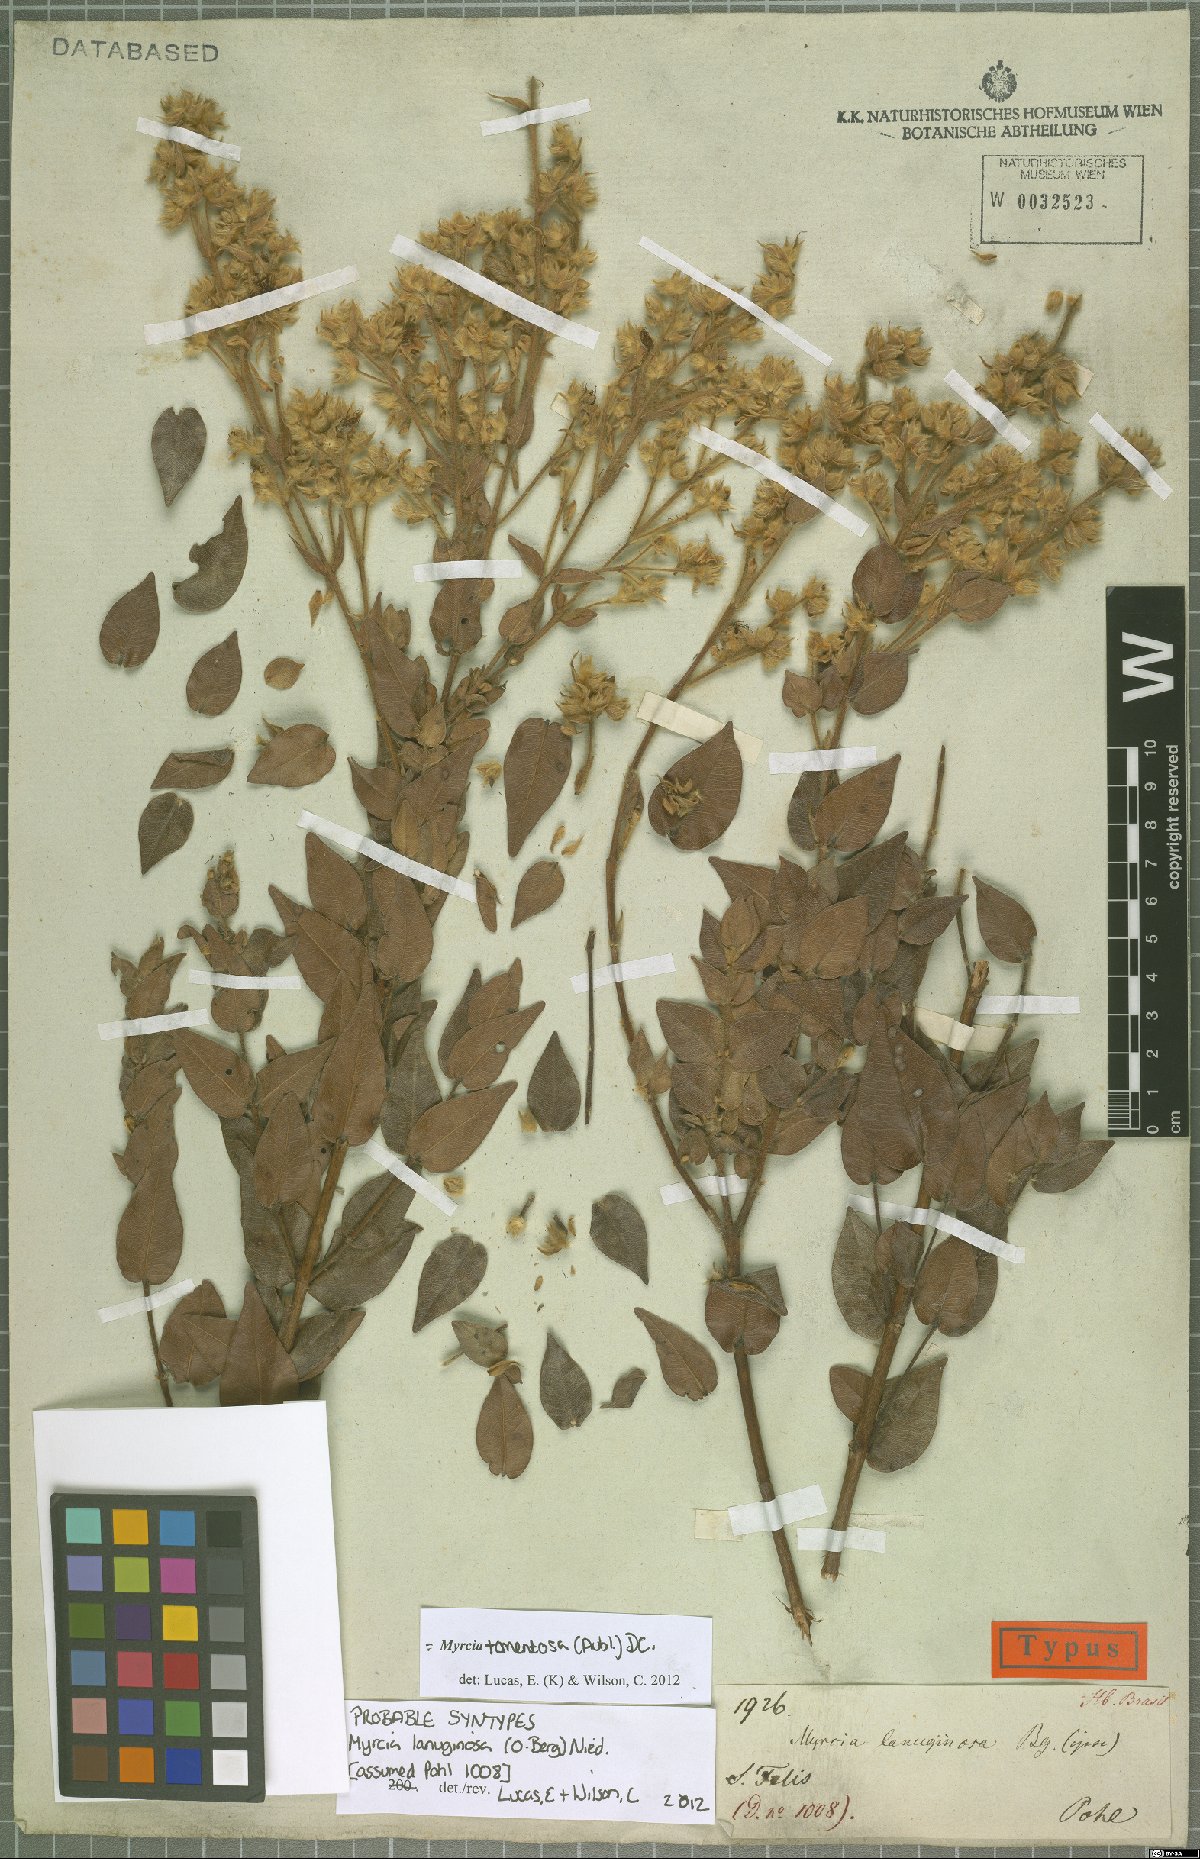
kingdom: Plantae
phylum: Tracheophyta
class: Magnoliopsida
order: Myrtales
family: Myrtaceae
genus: Myrcia
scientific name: Myrcia lanuginosa
